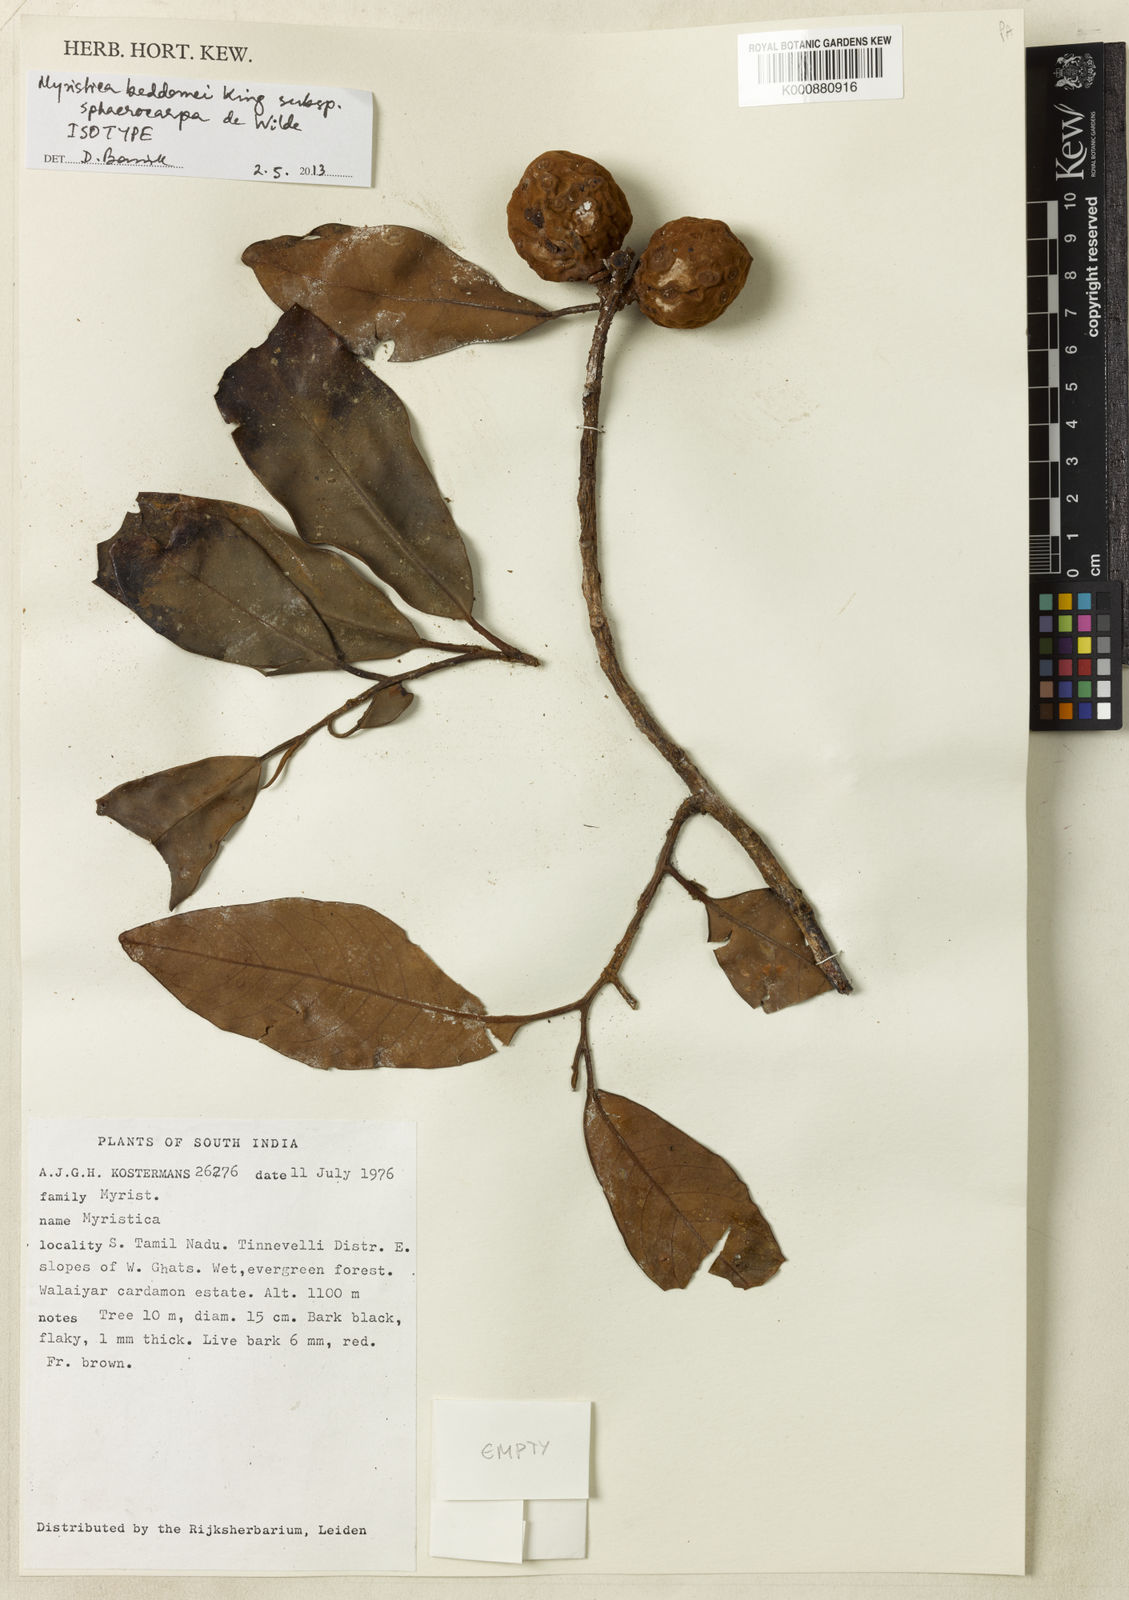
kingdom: Plantae
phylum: Tracheophyta
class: Magnoliopsida
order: Magnoliales
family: Myristicaceae
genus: Myristica
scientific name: Myristica beddomei
